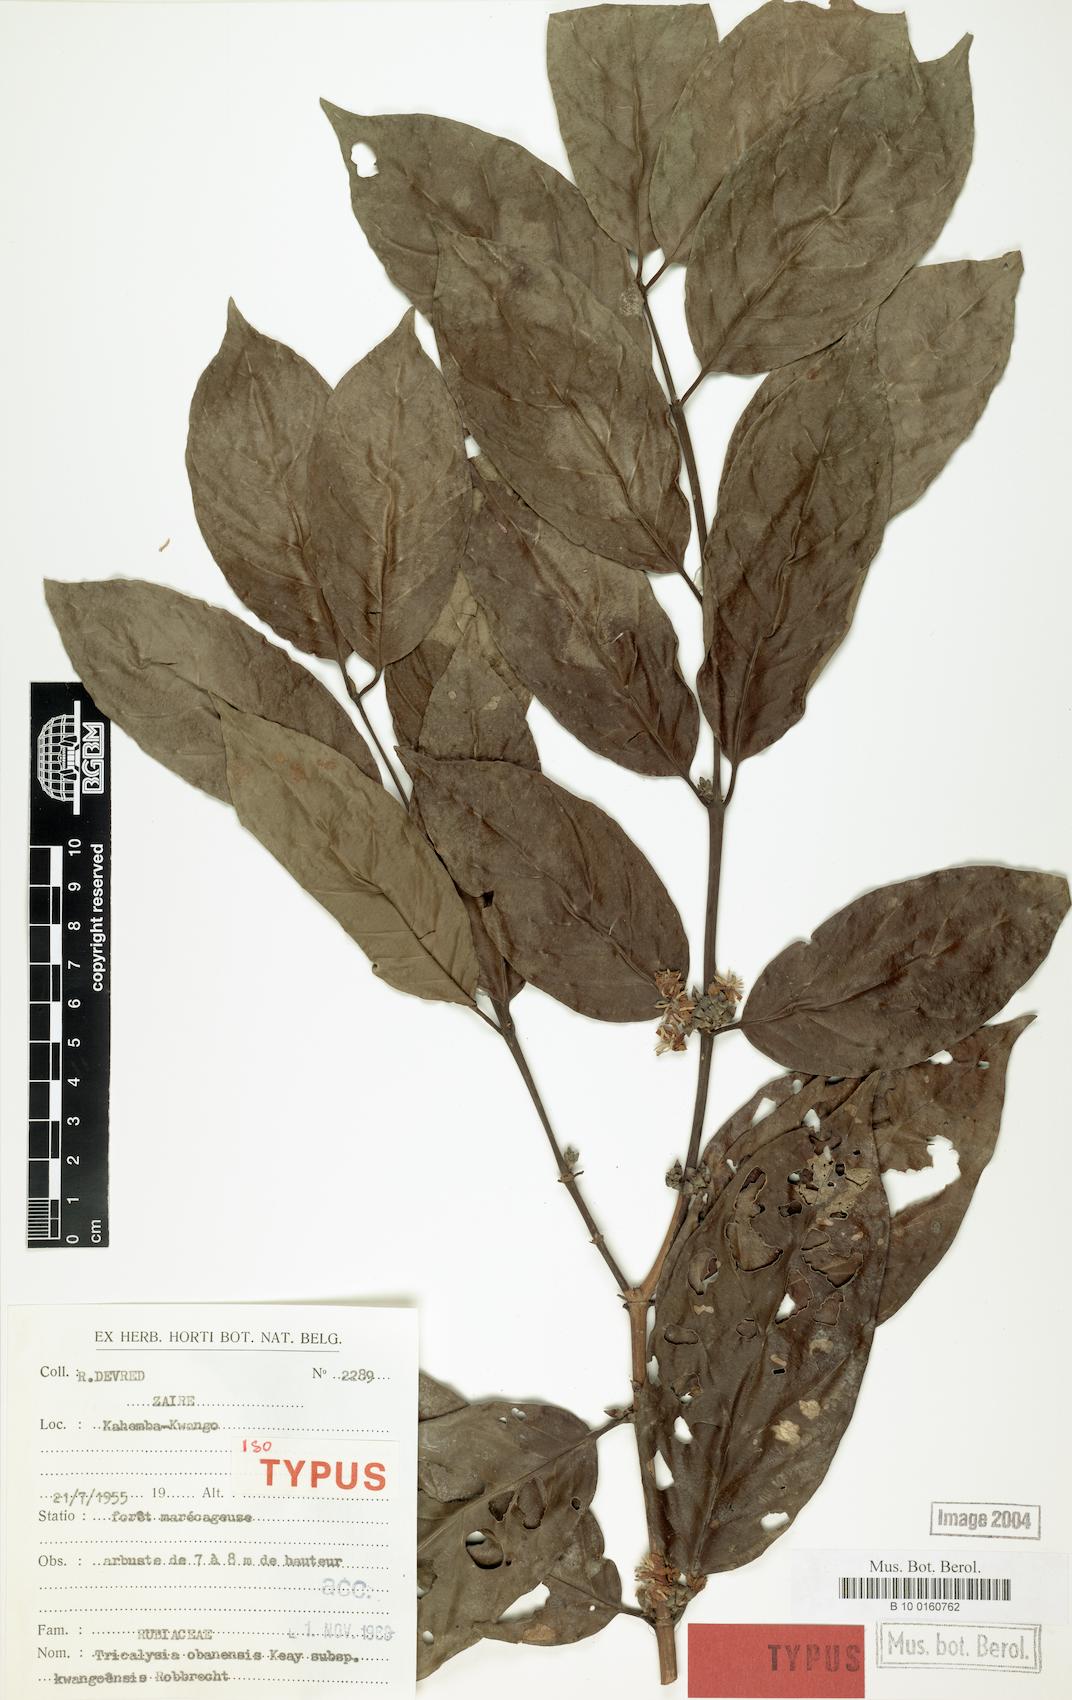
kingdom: Plantae
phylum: Tracheophyta
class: Magnoliopsida
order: Gentianales
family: Rubiaceae
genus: Tricalysia
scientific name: Tricalysia obanensis
